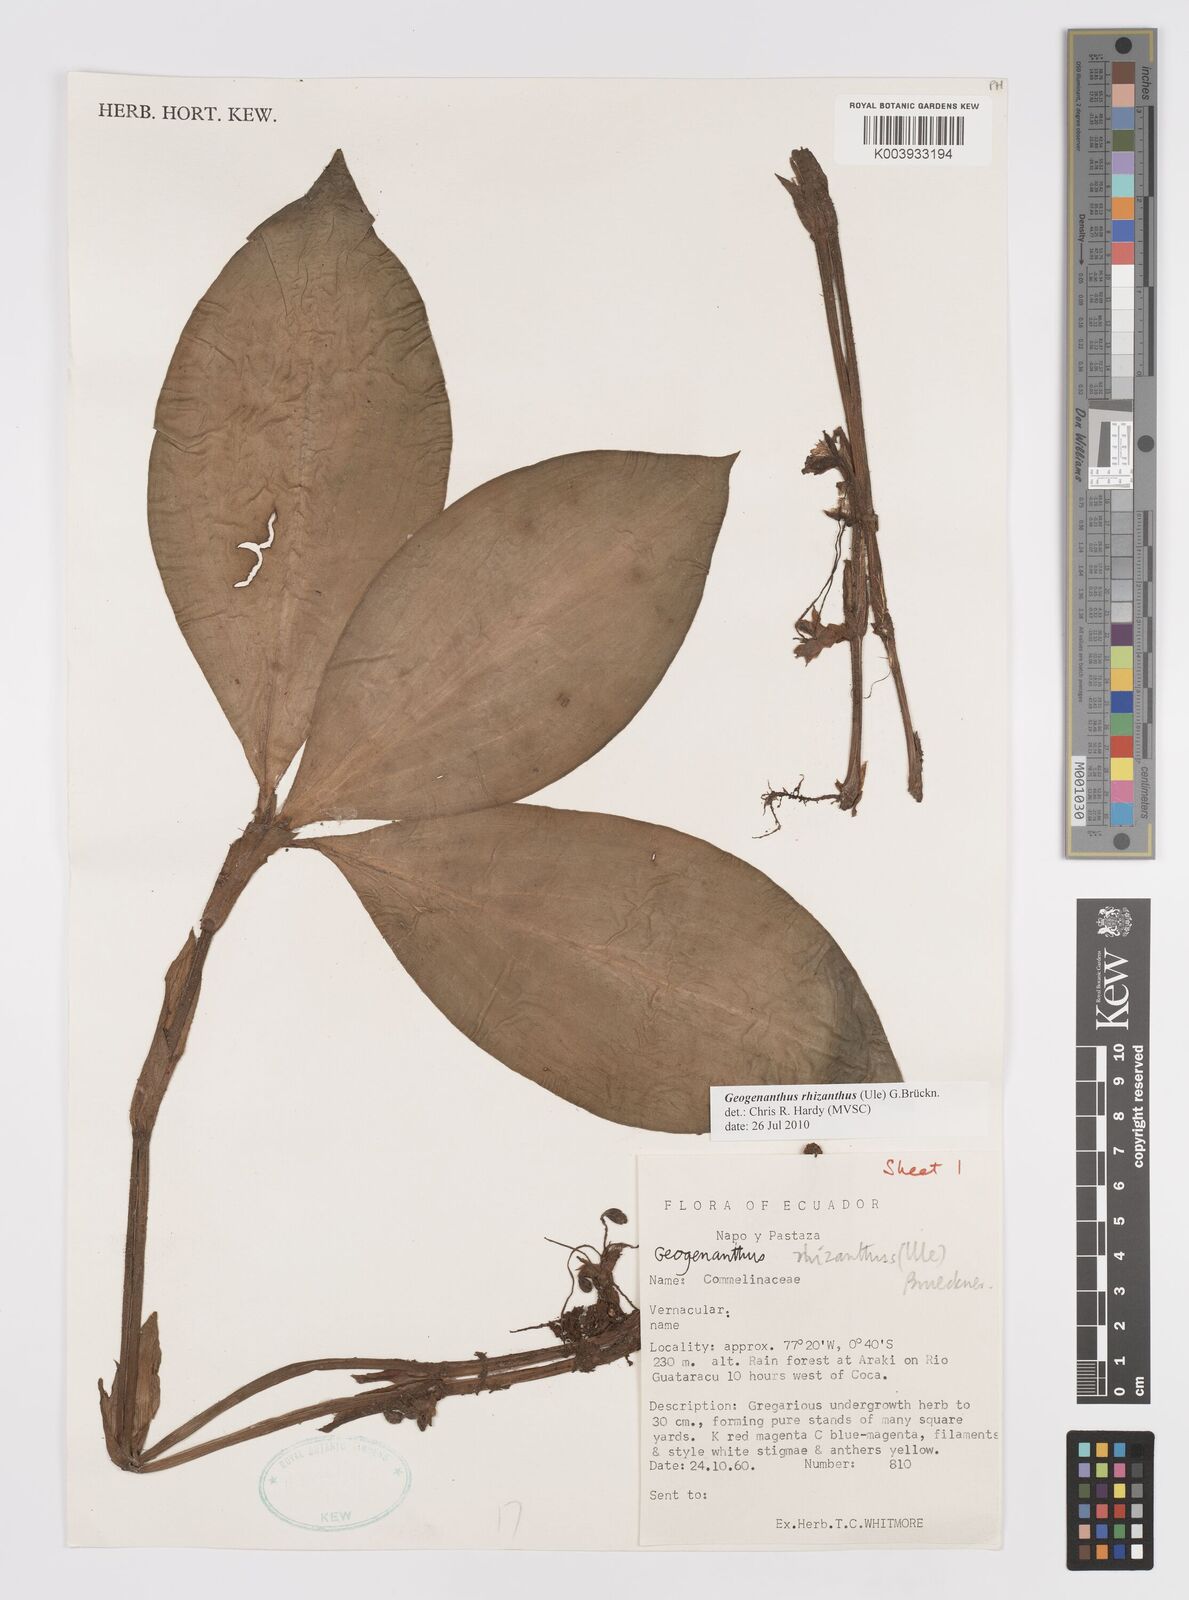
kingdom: Plantae
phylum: Tracheophyta
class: Liliopsida
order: Commelinales
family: Commelinaceae
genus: Geogenanthus
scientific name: Geogenanthus rhizanthus
